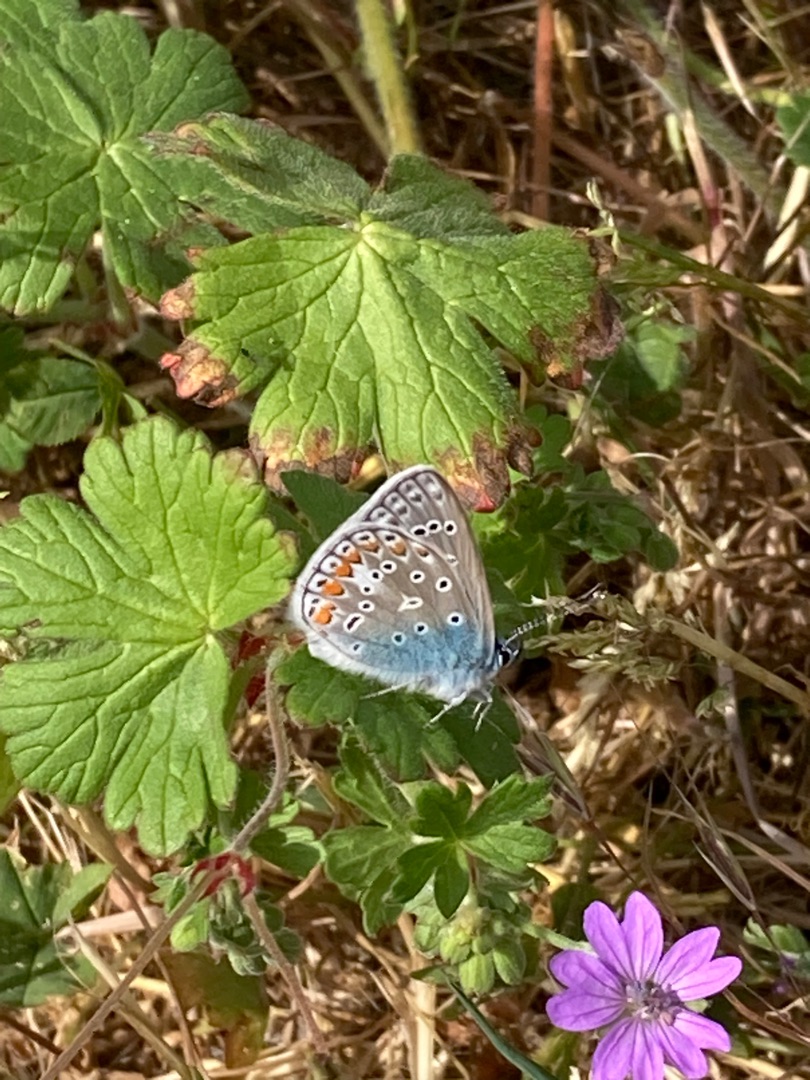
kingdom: Animalia
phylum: Arthropoda
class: Insecta
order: Lepidoptera
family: Lycaenidae
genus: Polyommatus
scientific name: Polyommatus icarus
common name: Almindelig blåfugl
